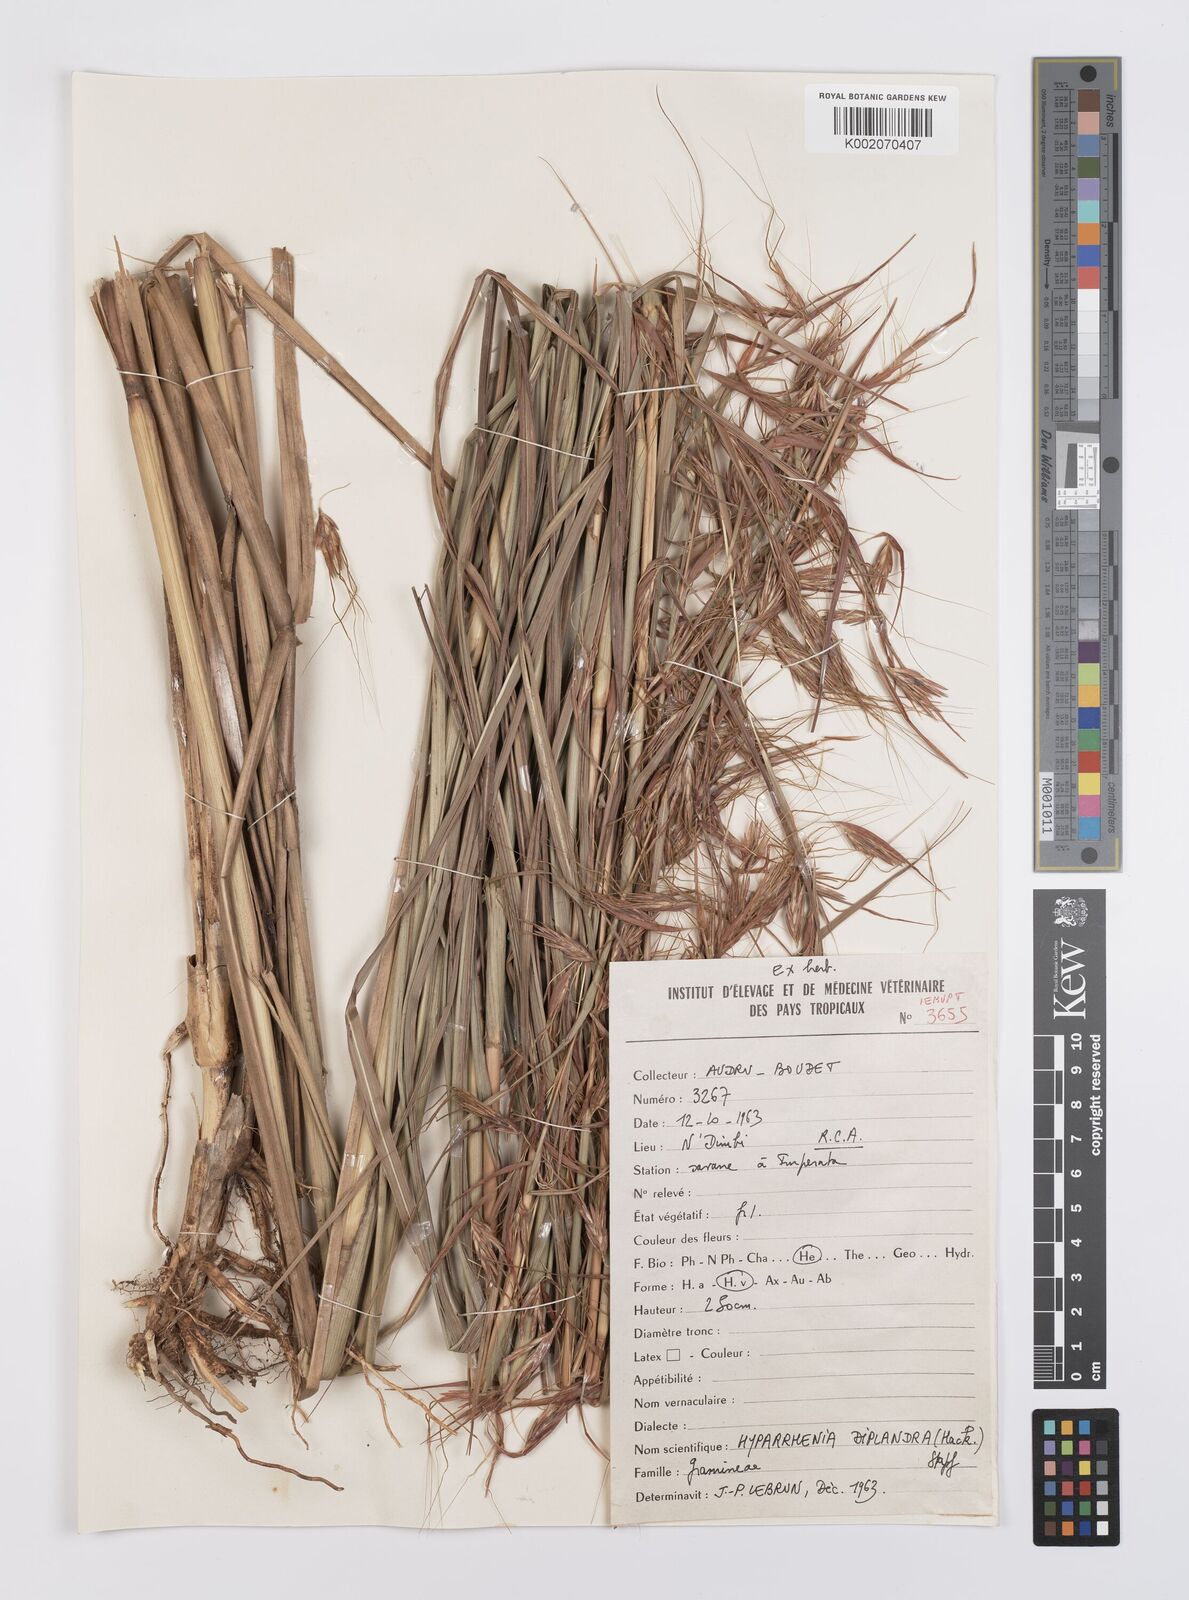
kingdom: Plantae
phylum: Tracheophyta
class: Liliopsida
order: Poales
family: Poaceae
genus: Hyparrhenia
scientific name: Hyparrhenia diplandra
